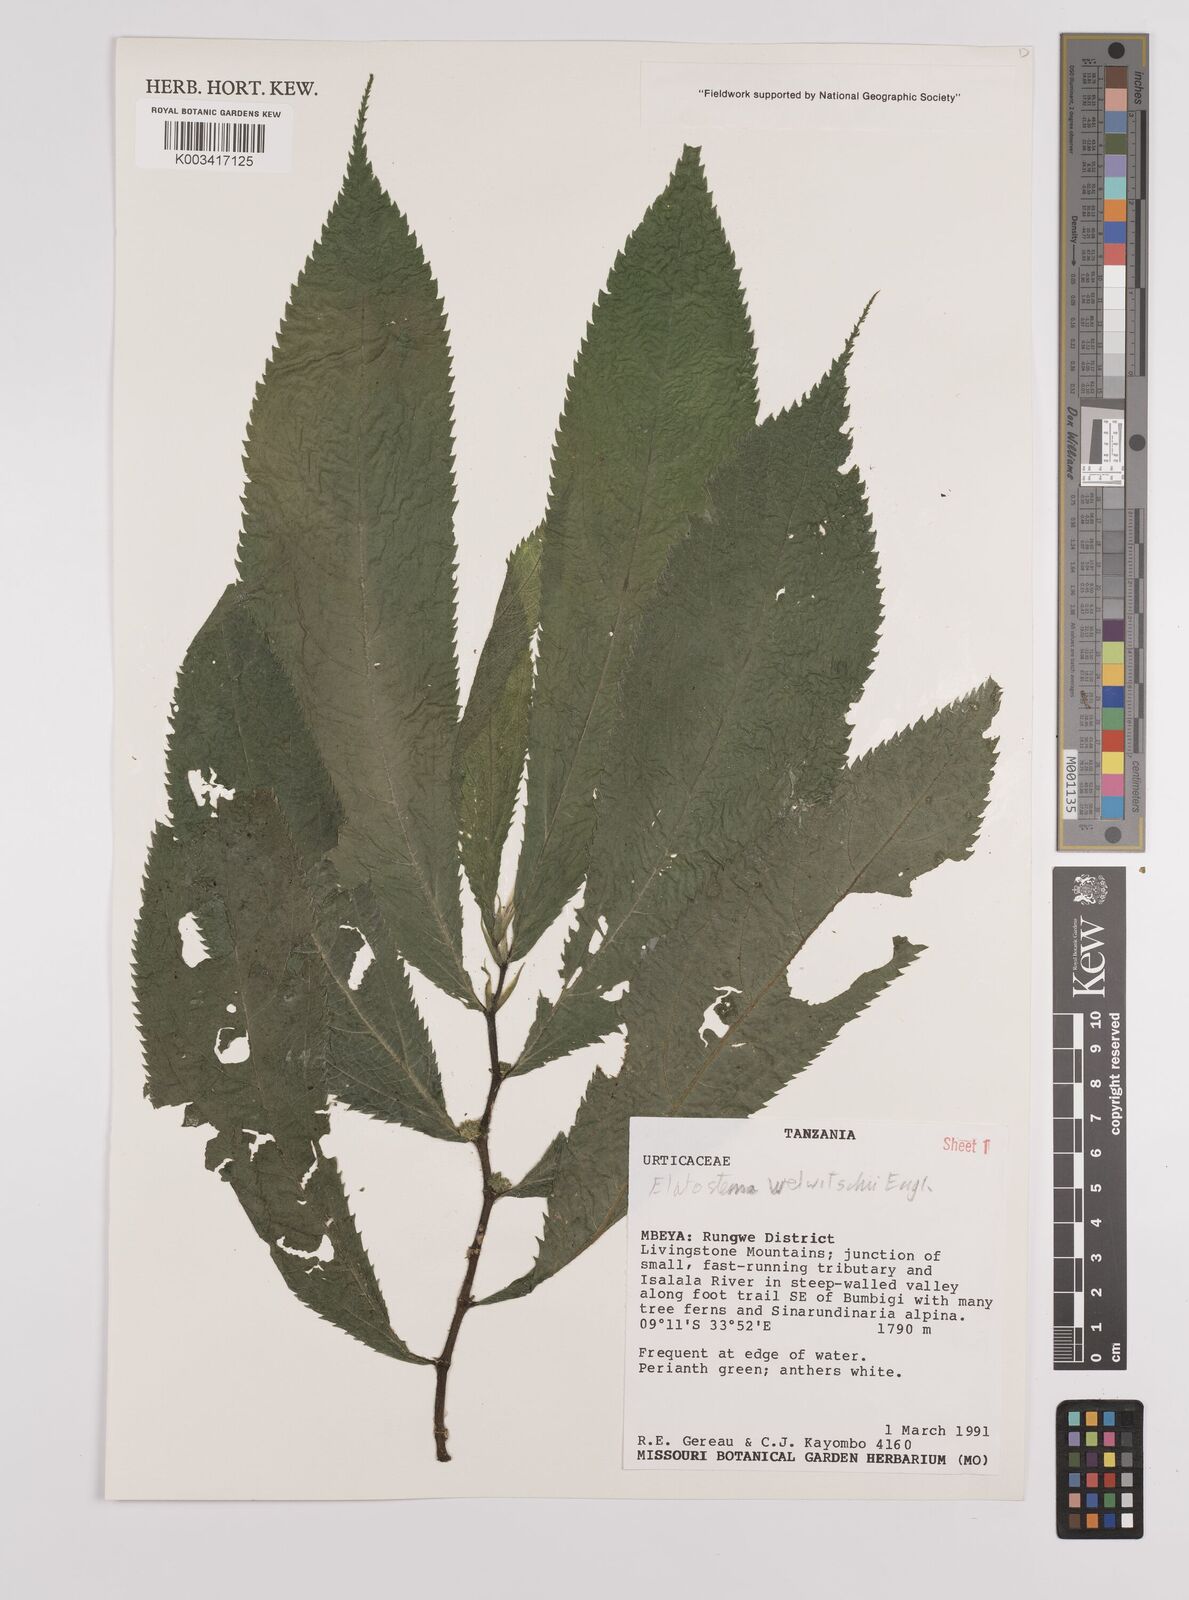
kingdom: Plantae
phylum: Tracheophyta
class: Magnoliopsida
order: Rosales
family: Urticaceae
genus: Elatostema
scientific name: Elatostema welwitschii
